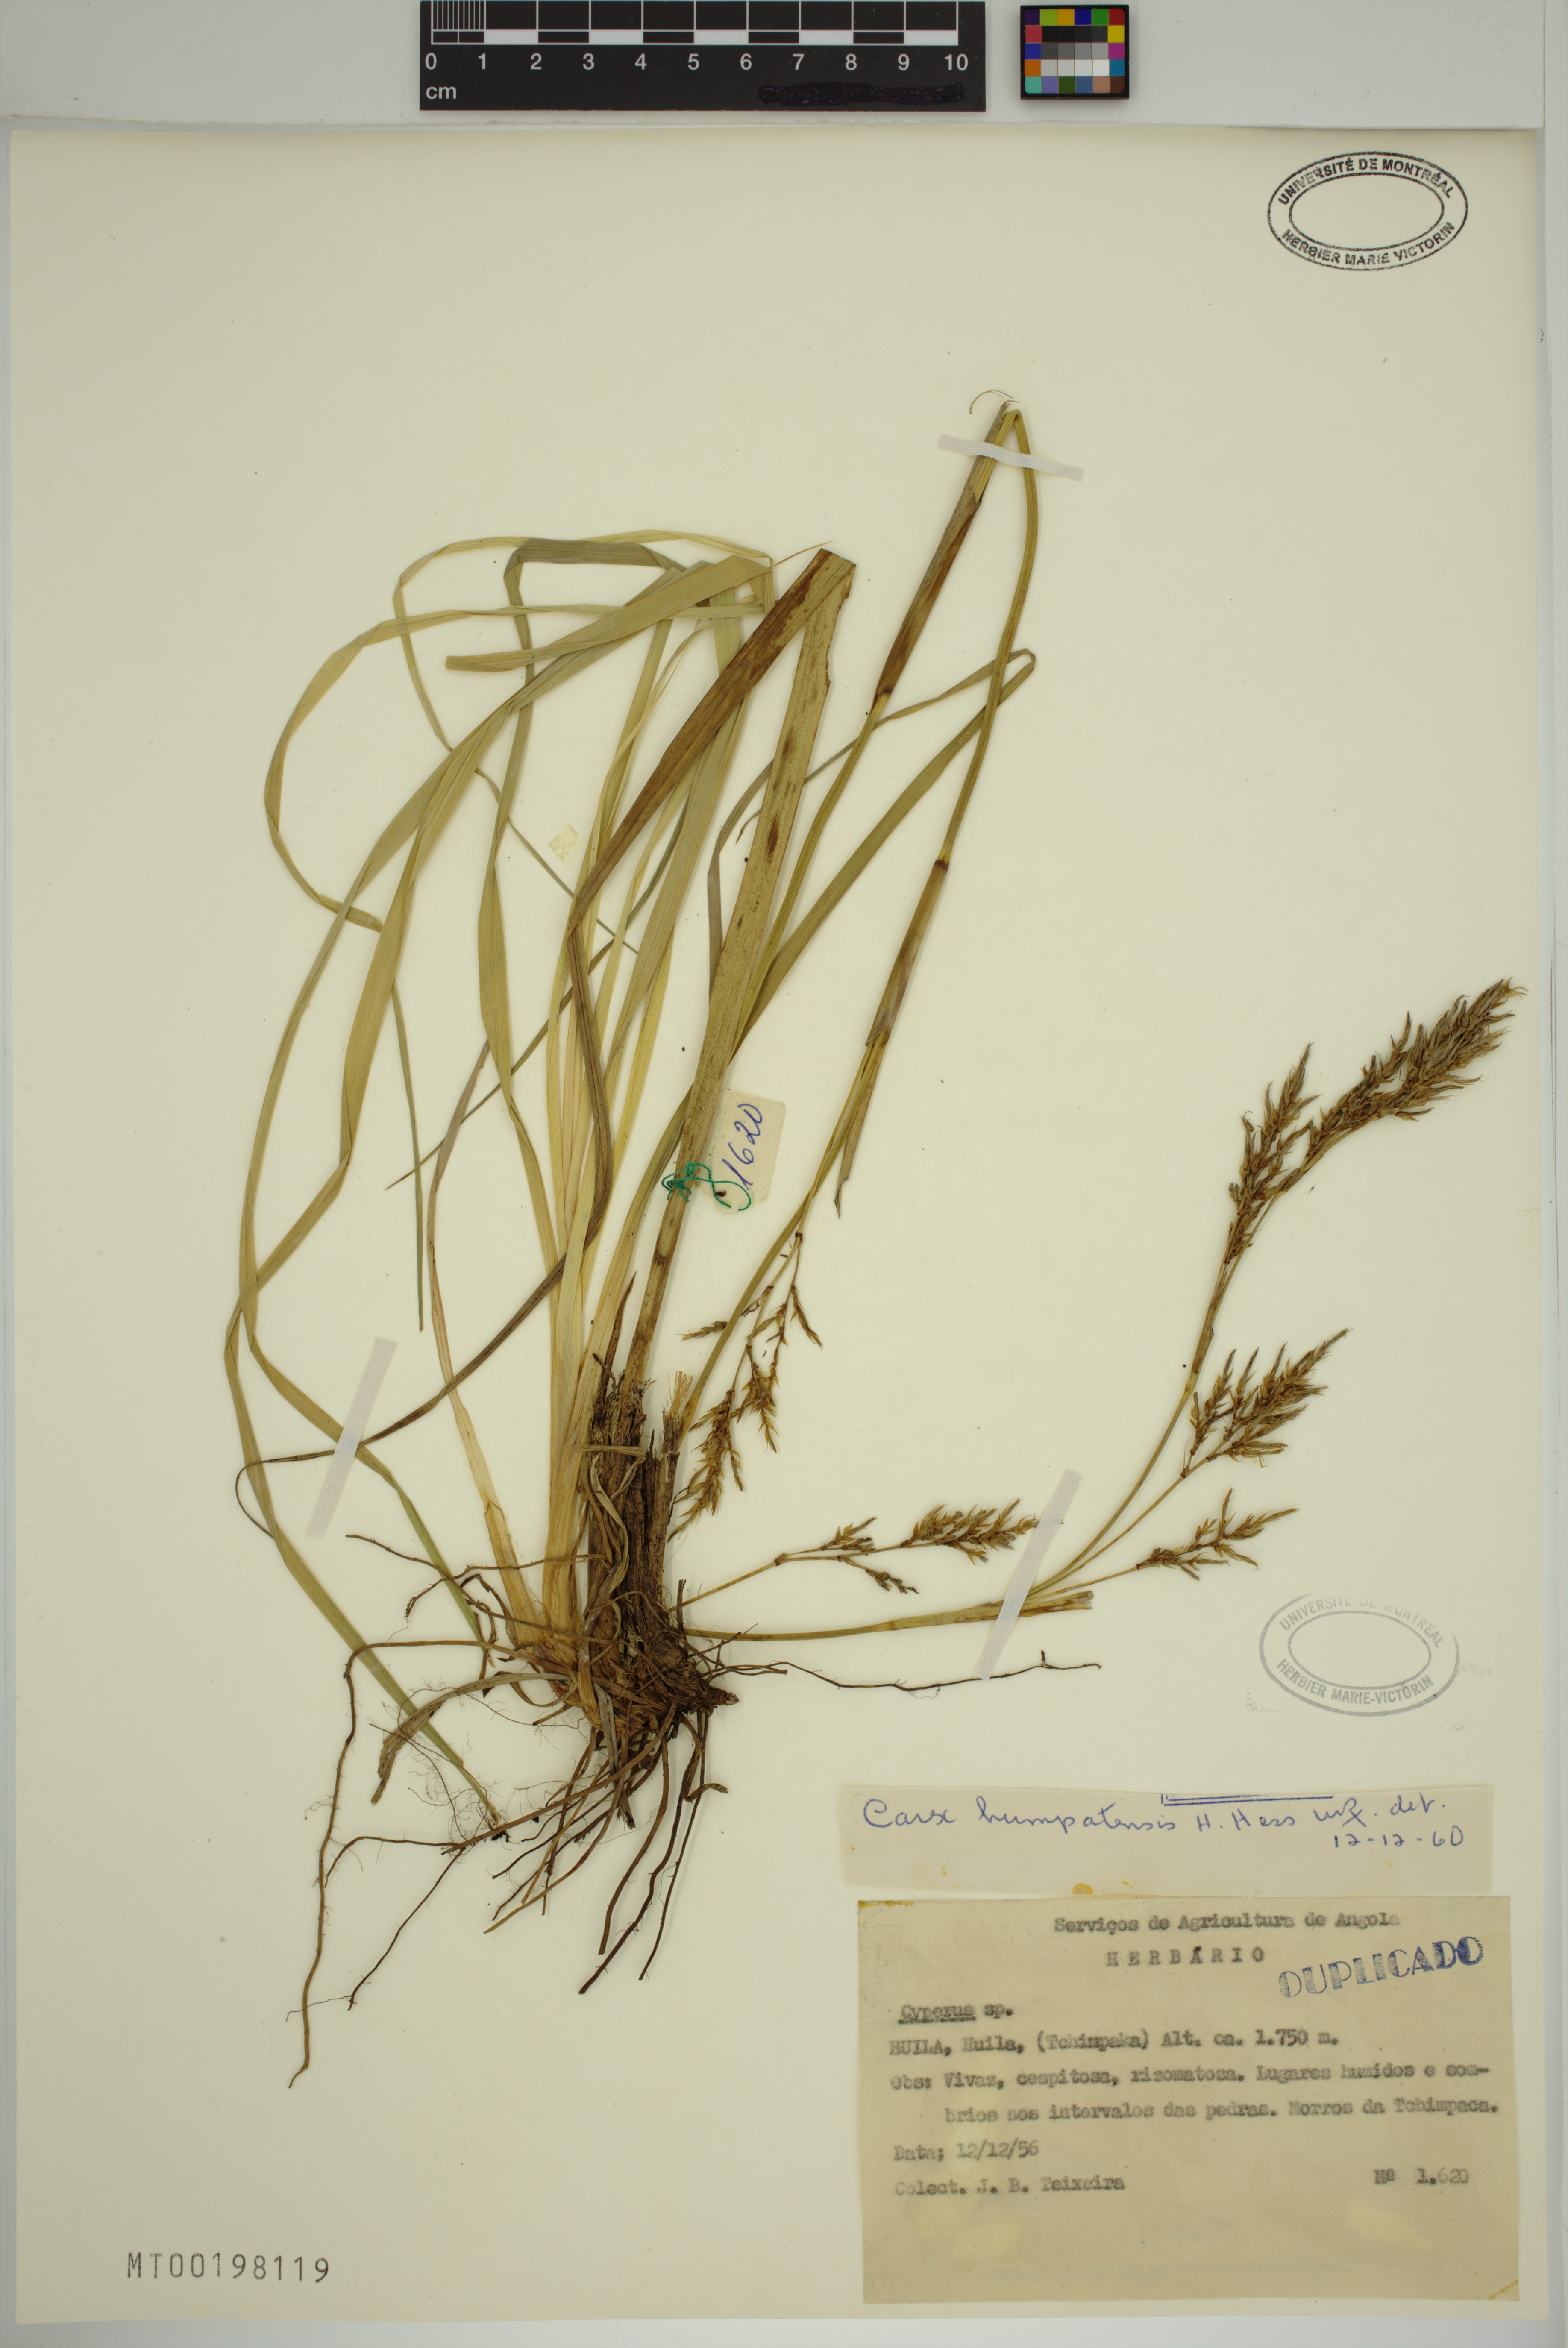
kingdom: Plantae
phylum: Tracheophyta
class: Liliopsida
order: Poales
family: Cyperaceae
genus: Carex
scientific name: Carex humpatensis
